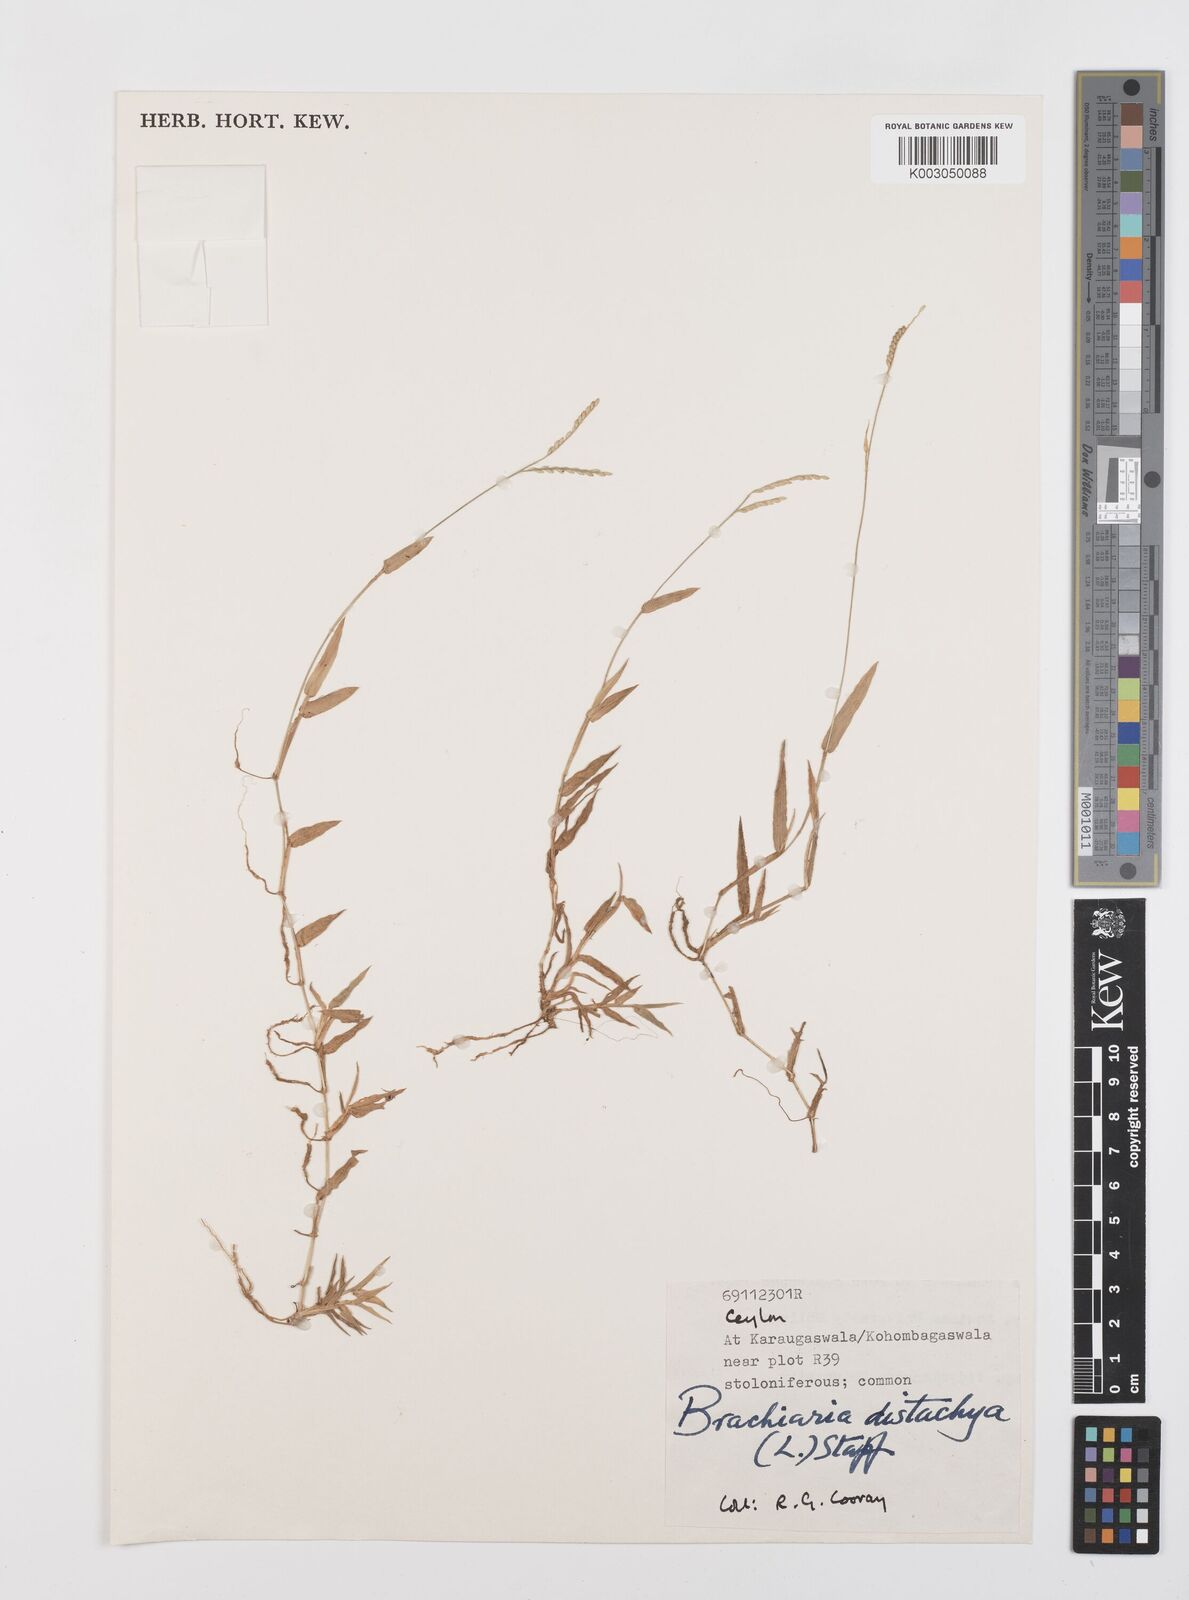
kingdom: Plantae
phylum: Tracheophyta
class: Liliopsida
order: Poales
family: Poaceae
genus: Urochloa
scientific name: Urochloa distachyos
